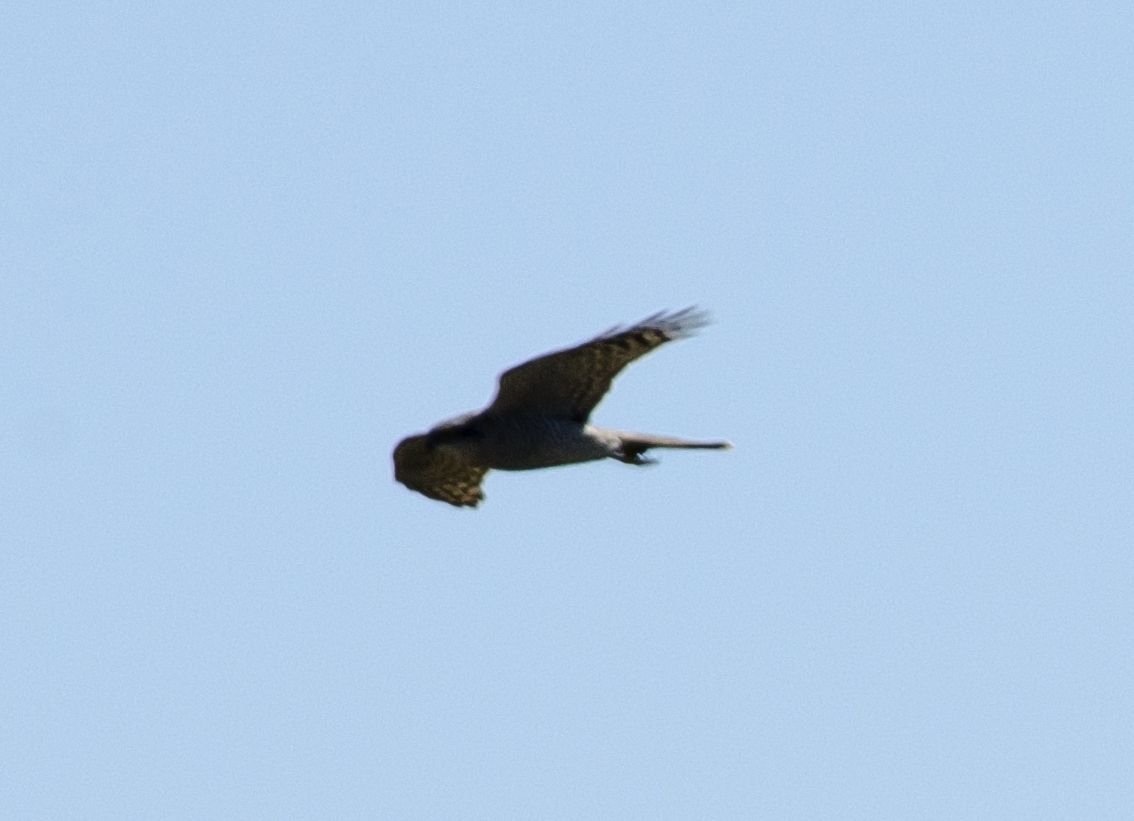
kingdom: Animalia
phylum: Chordata
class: Aves
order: Accipitriformes
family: Accipitridae
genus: Accipiter
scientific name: Accipiter gentilis
